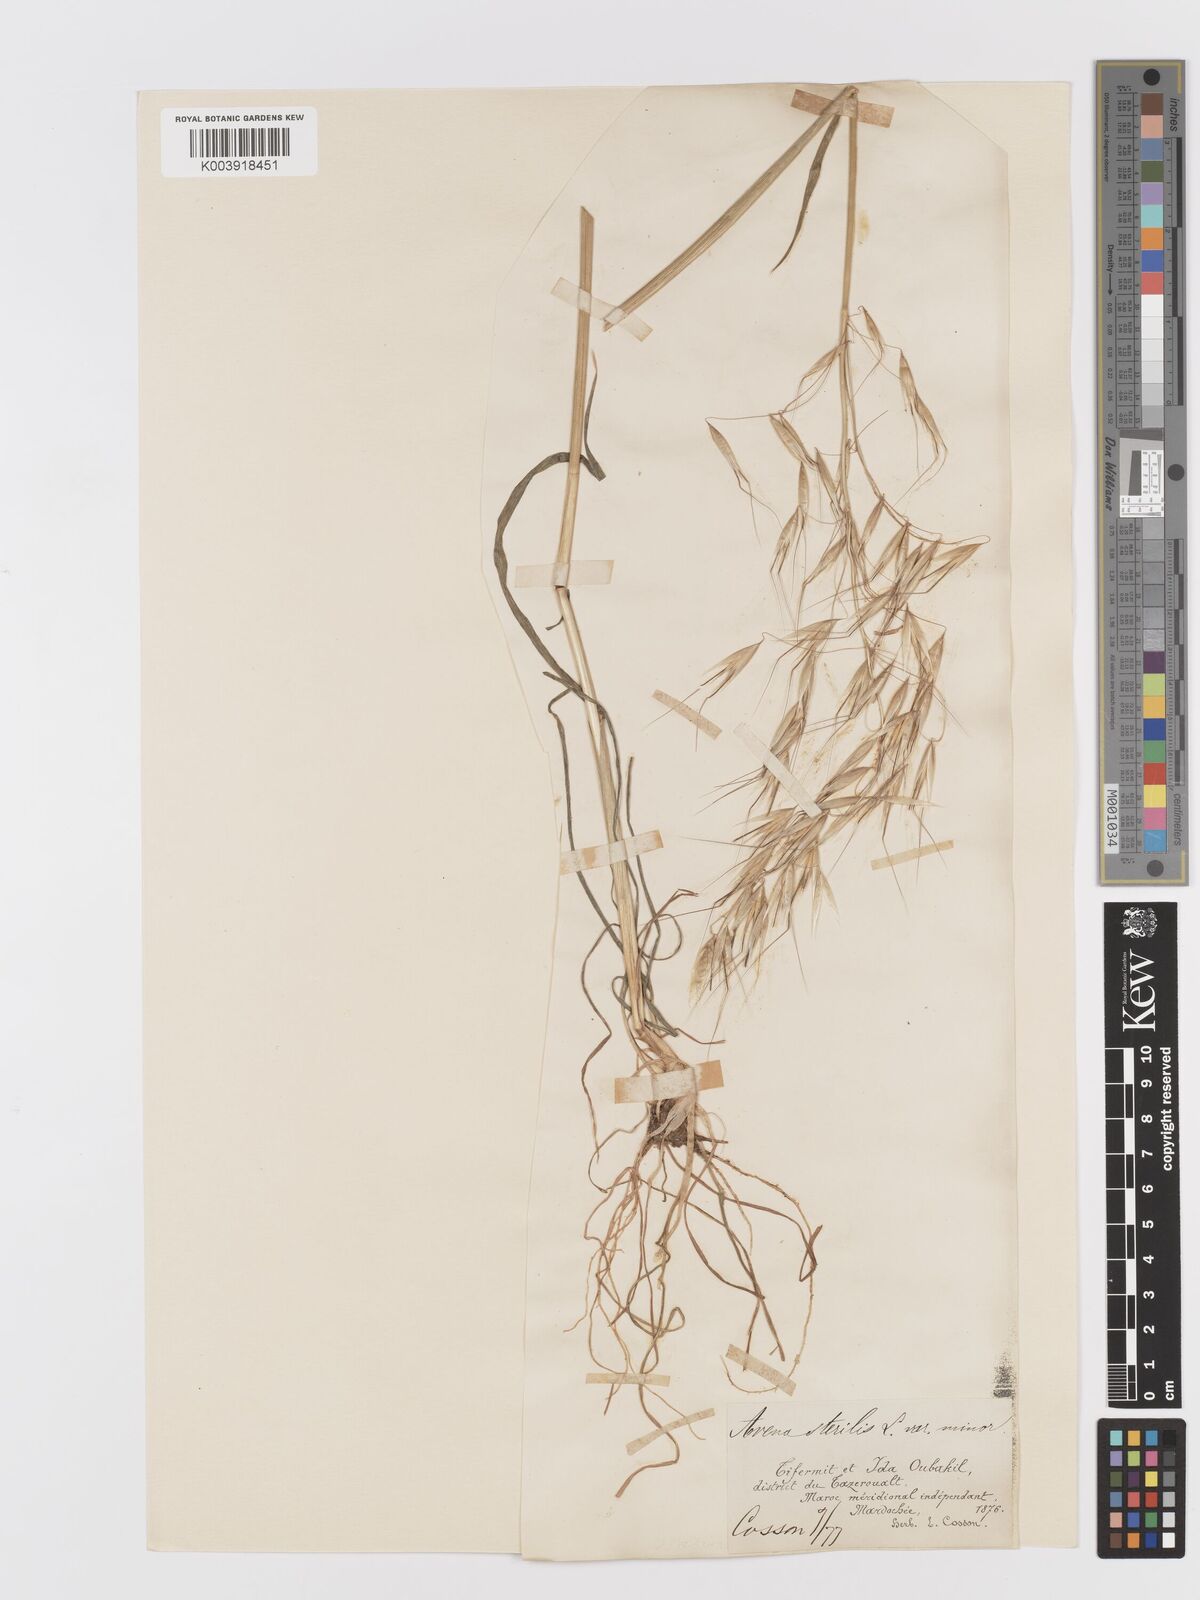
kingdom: Plantae
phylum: Tracheophyta
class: Liliopsida
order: Poales
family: Poaceae
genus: Avena
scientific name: Avena
